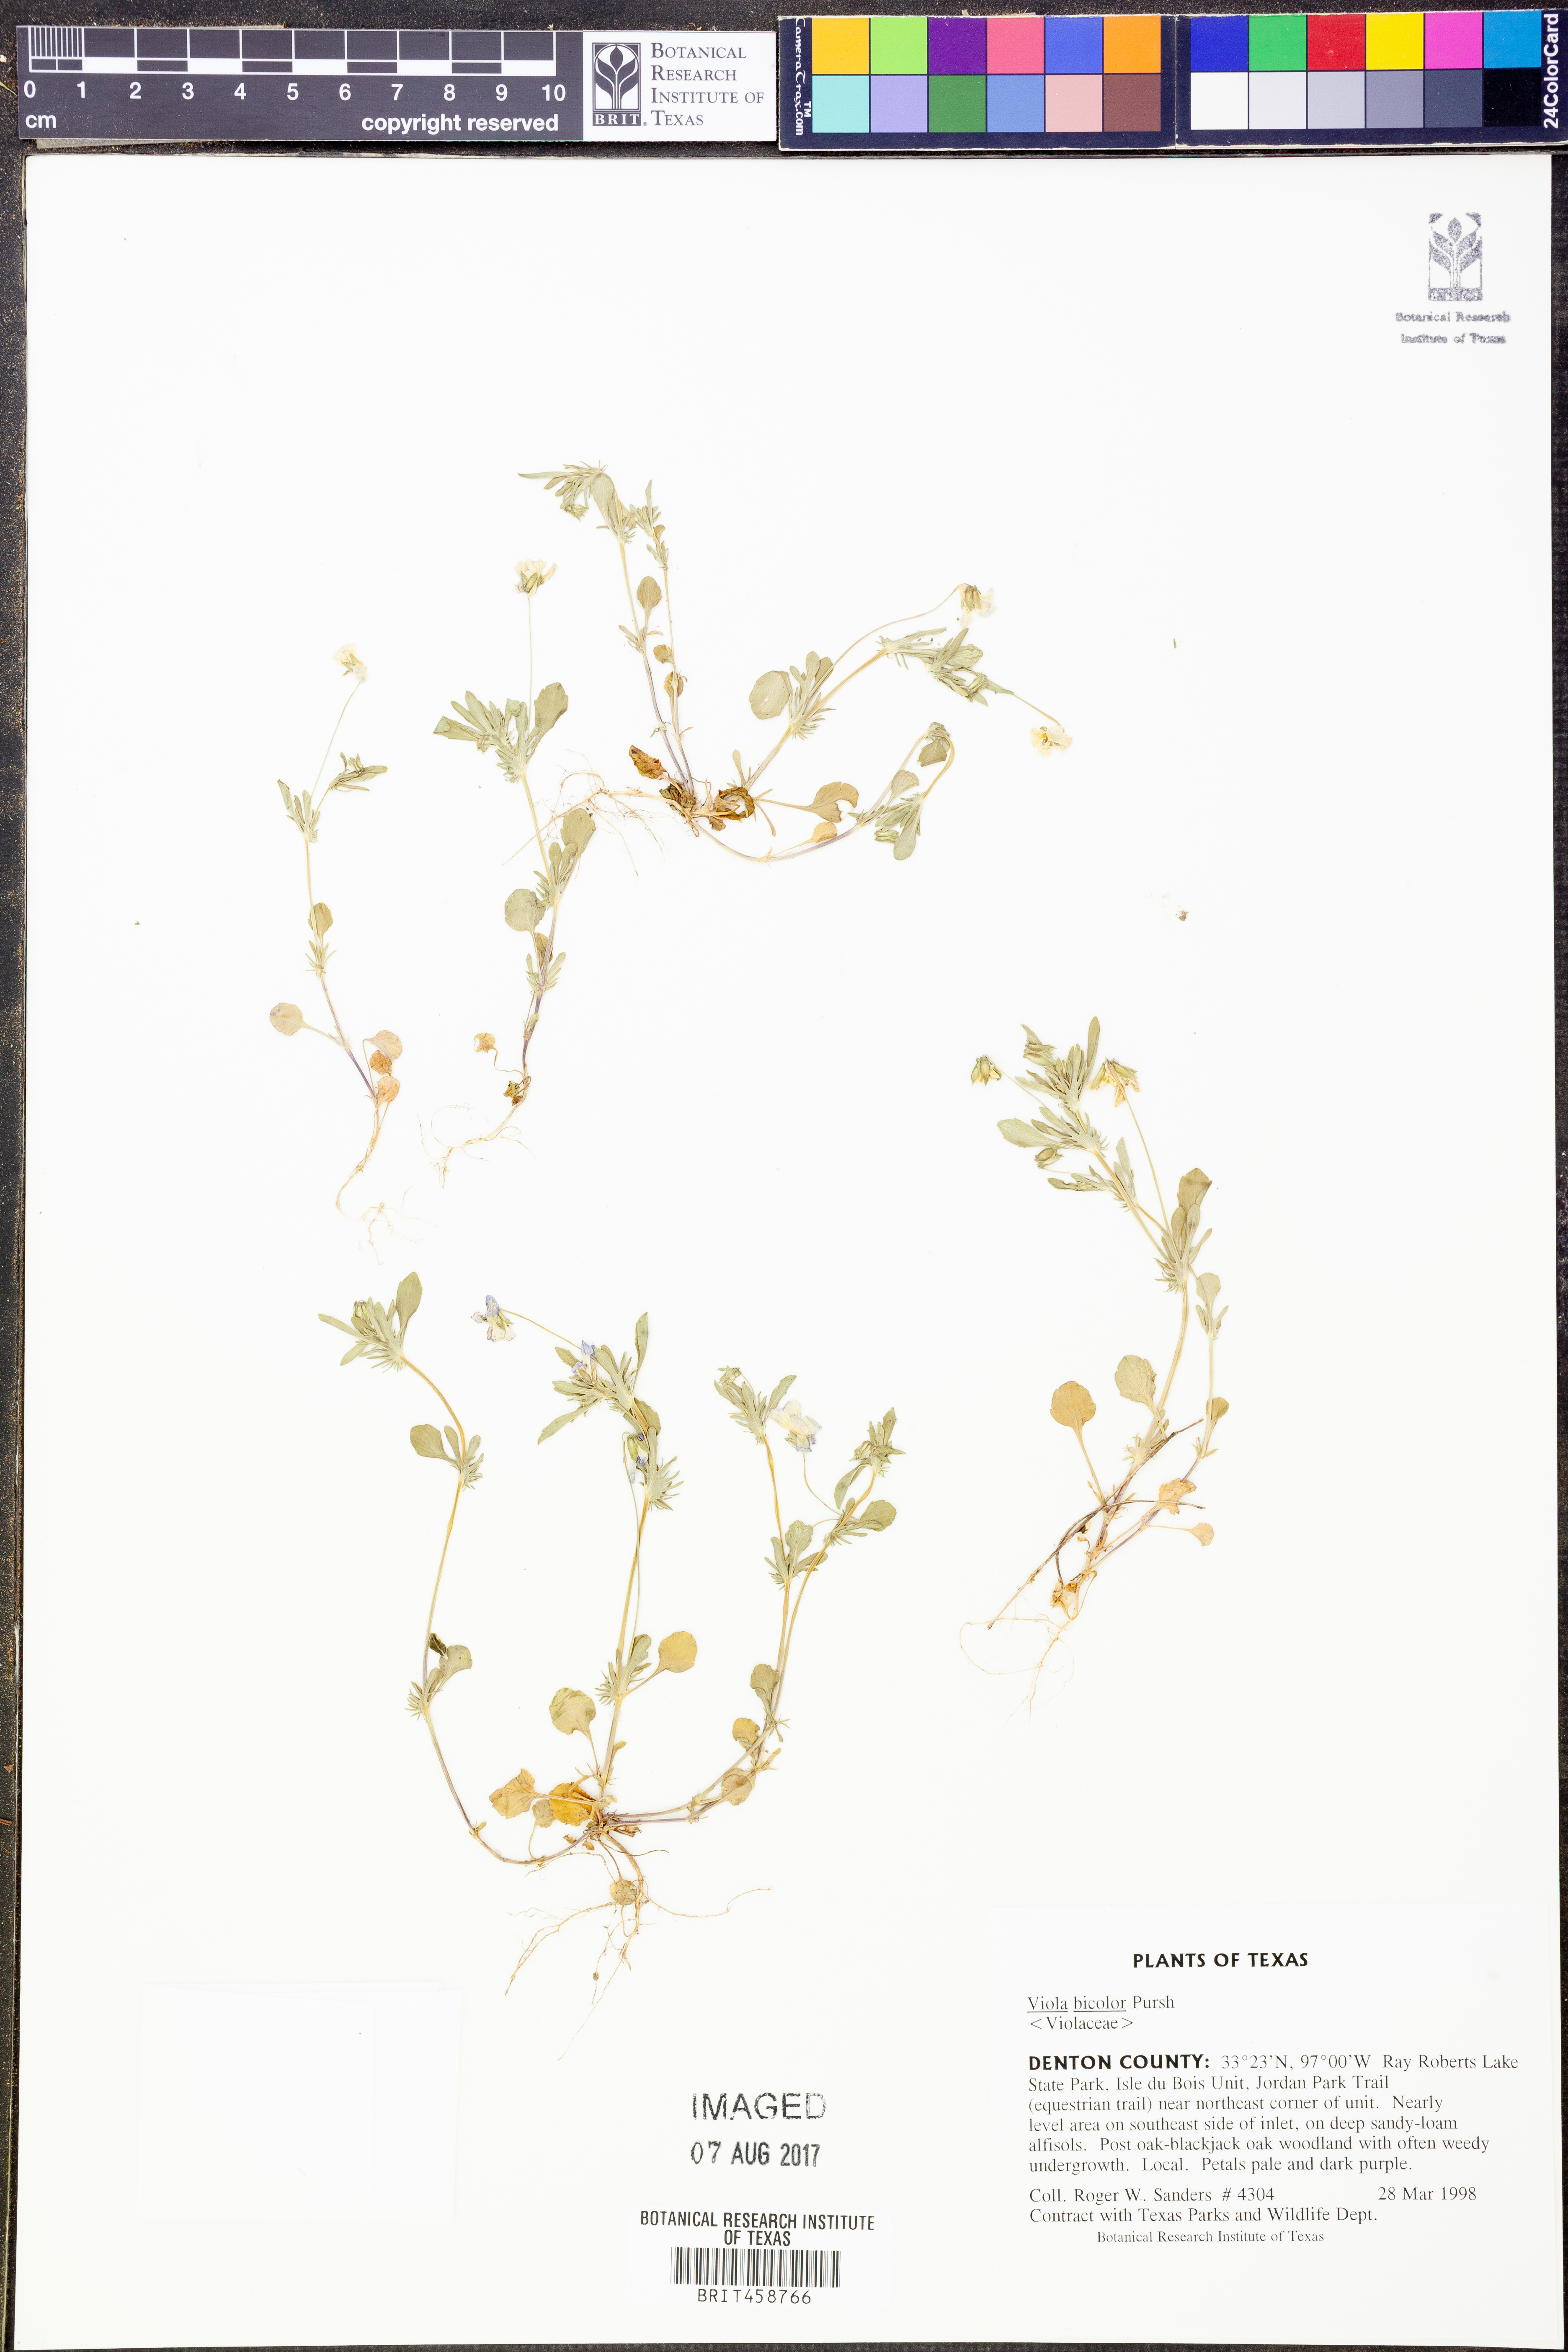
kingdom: Plantae
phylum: Tracheophyta
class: Magnoliopsida
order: Malpighiales
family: Violaceae
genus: Viola
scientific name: Viola rafinesquei
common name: American field pansy
